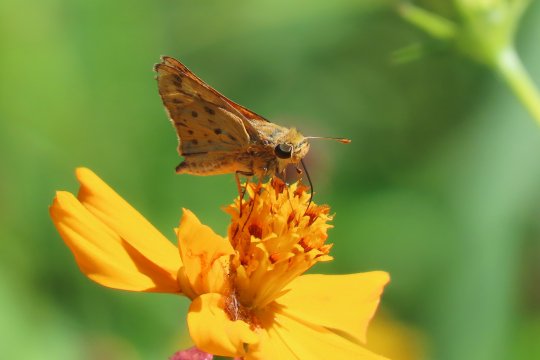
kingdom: Animalia
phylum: Arthropoda
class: Insecta
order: Lepidoptera
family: Hesperiidae
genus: Hylephila
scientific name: Hylephila phyleus
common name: Fiery Skipper
